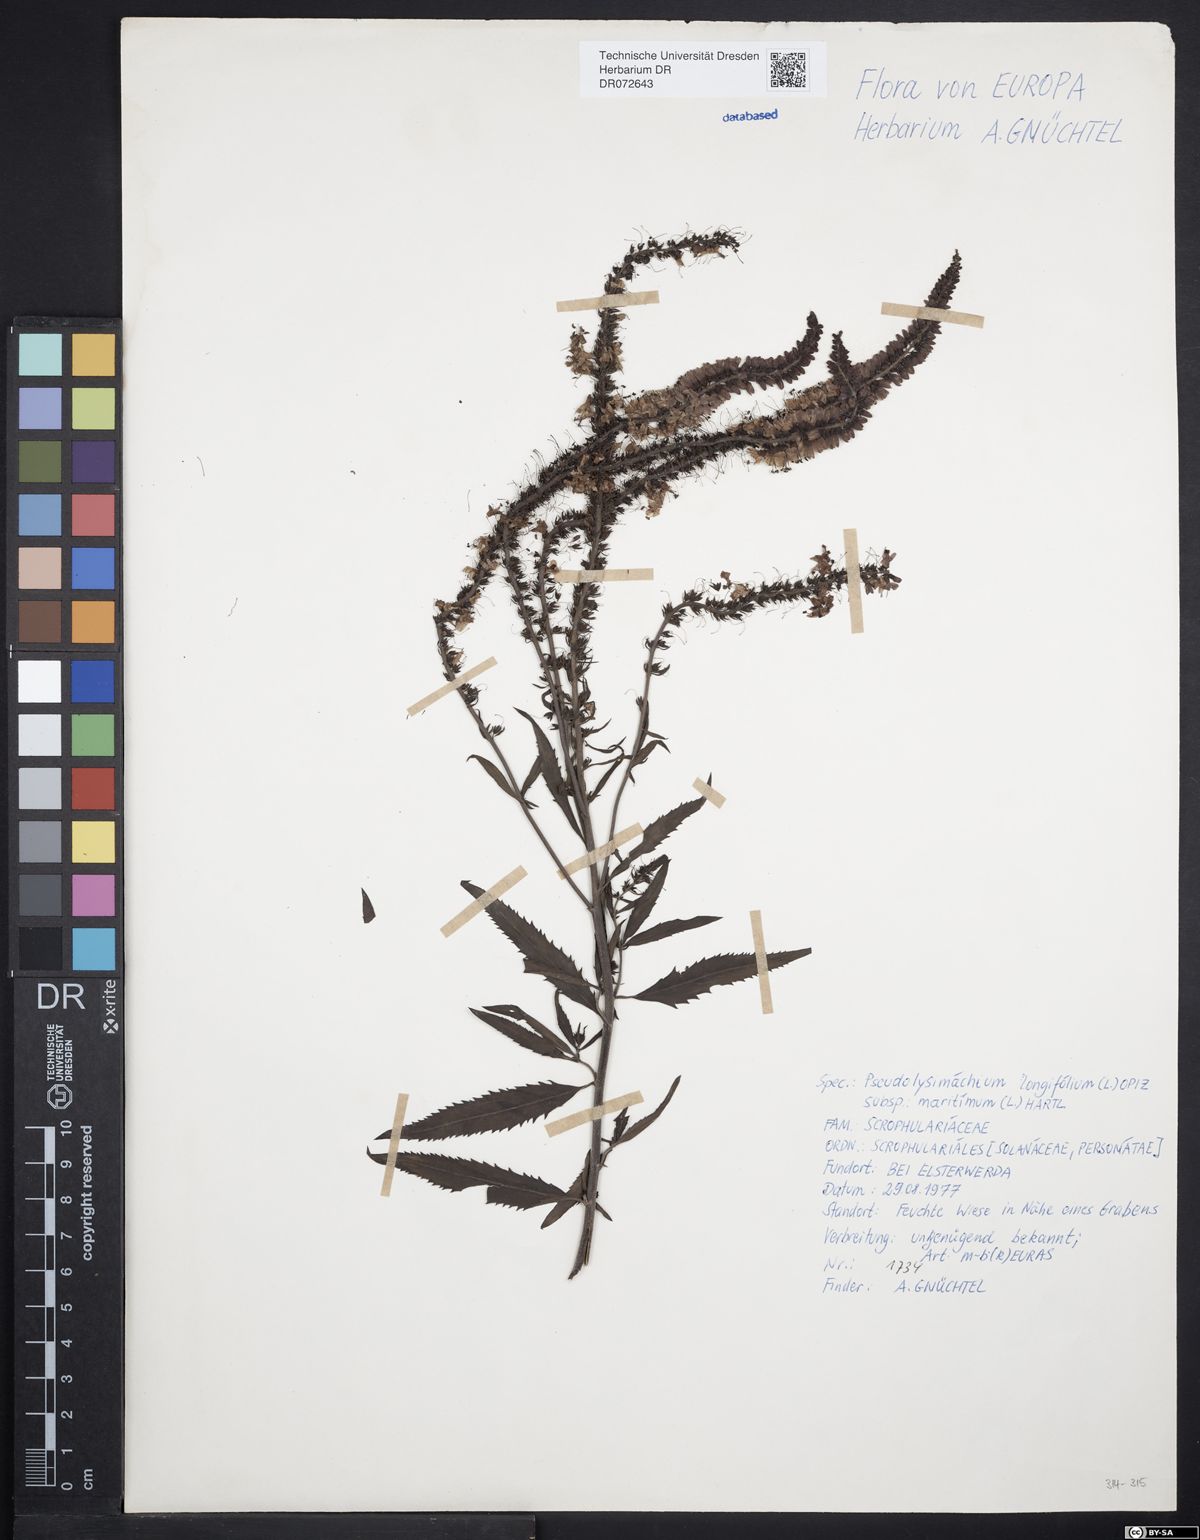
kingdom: Plantae
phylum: Tracheophyta
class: Magnoliopsida
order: Lamiales
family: Plantaginaceae
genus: Veronica
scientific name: Veronica longifolia
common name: Garden speedwell
